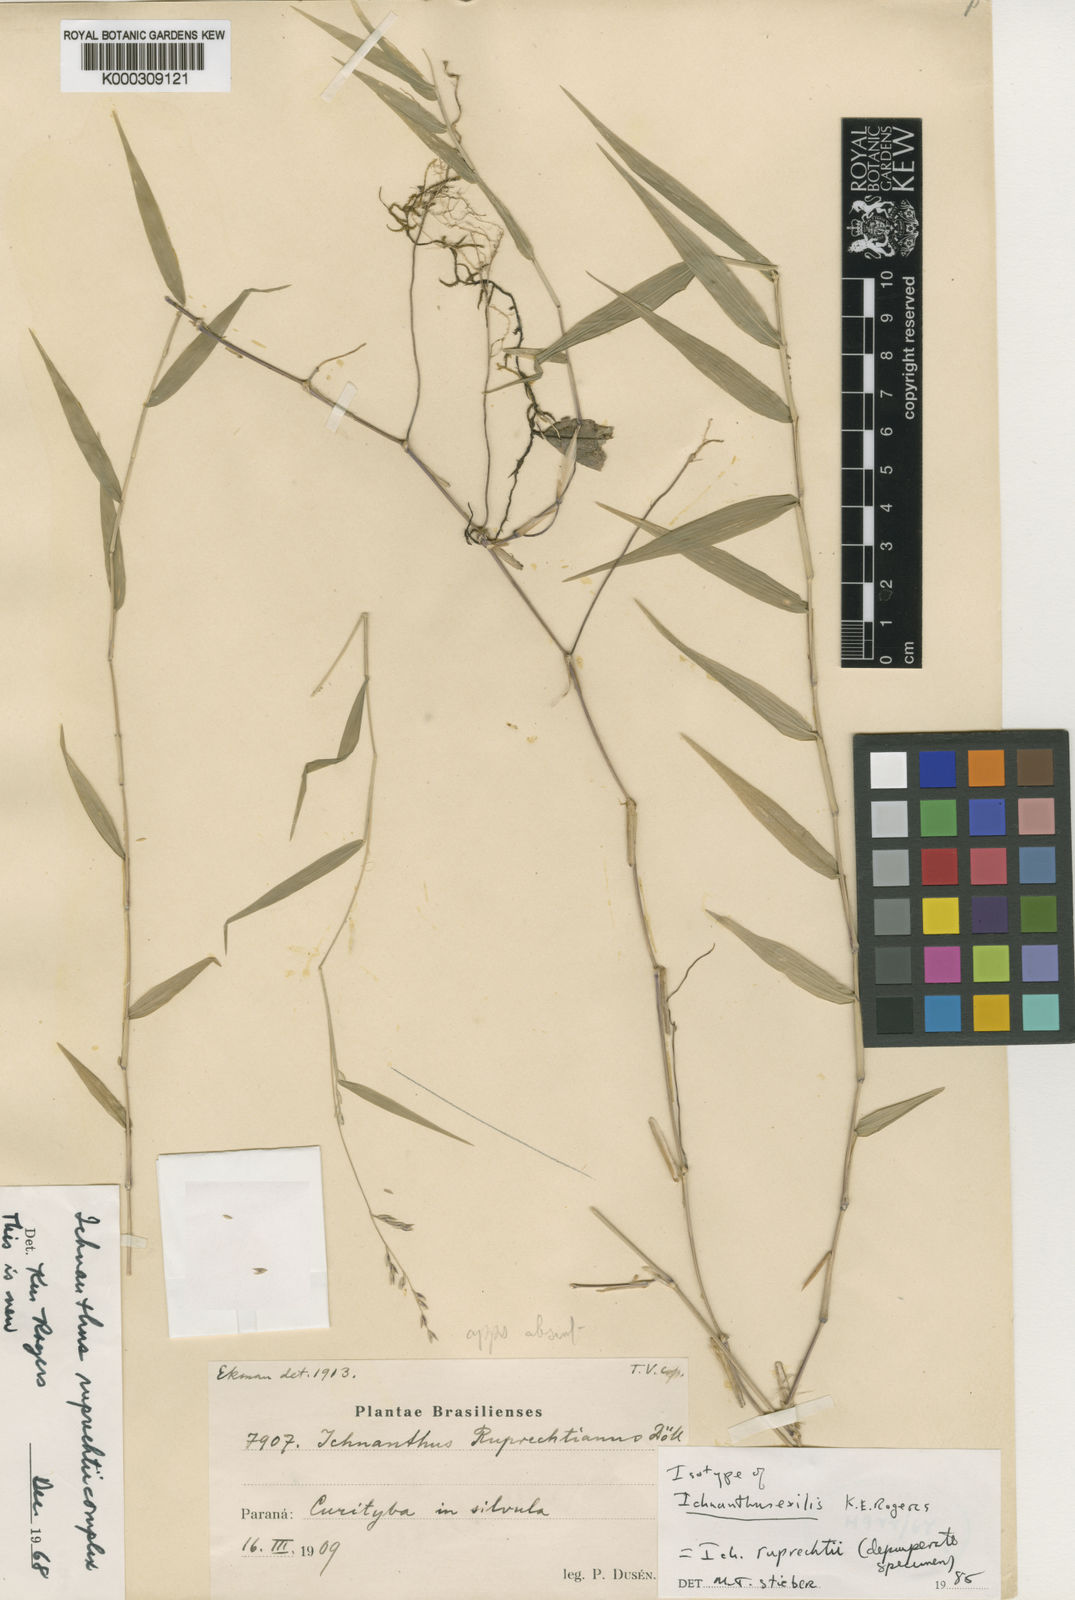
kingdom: Plantae
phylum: Tracheophyta
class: Liliopsida
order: Poales
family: Poaceae
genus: Ichnanthus
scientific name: Ichnanthus
